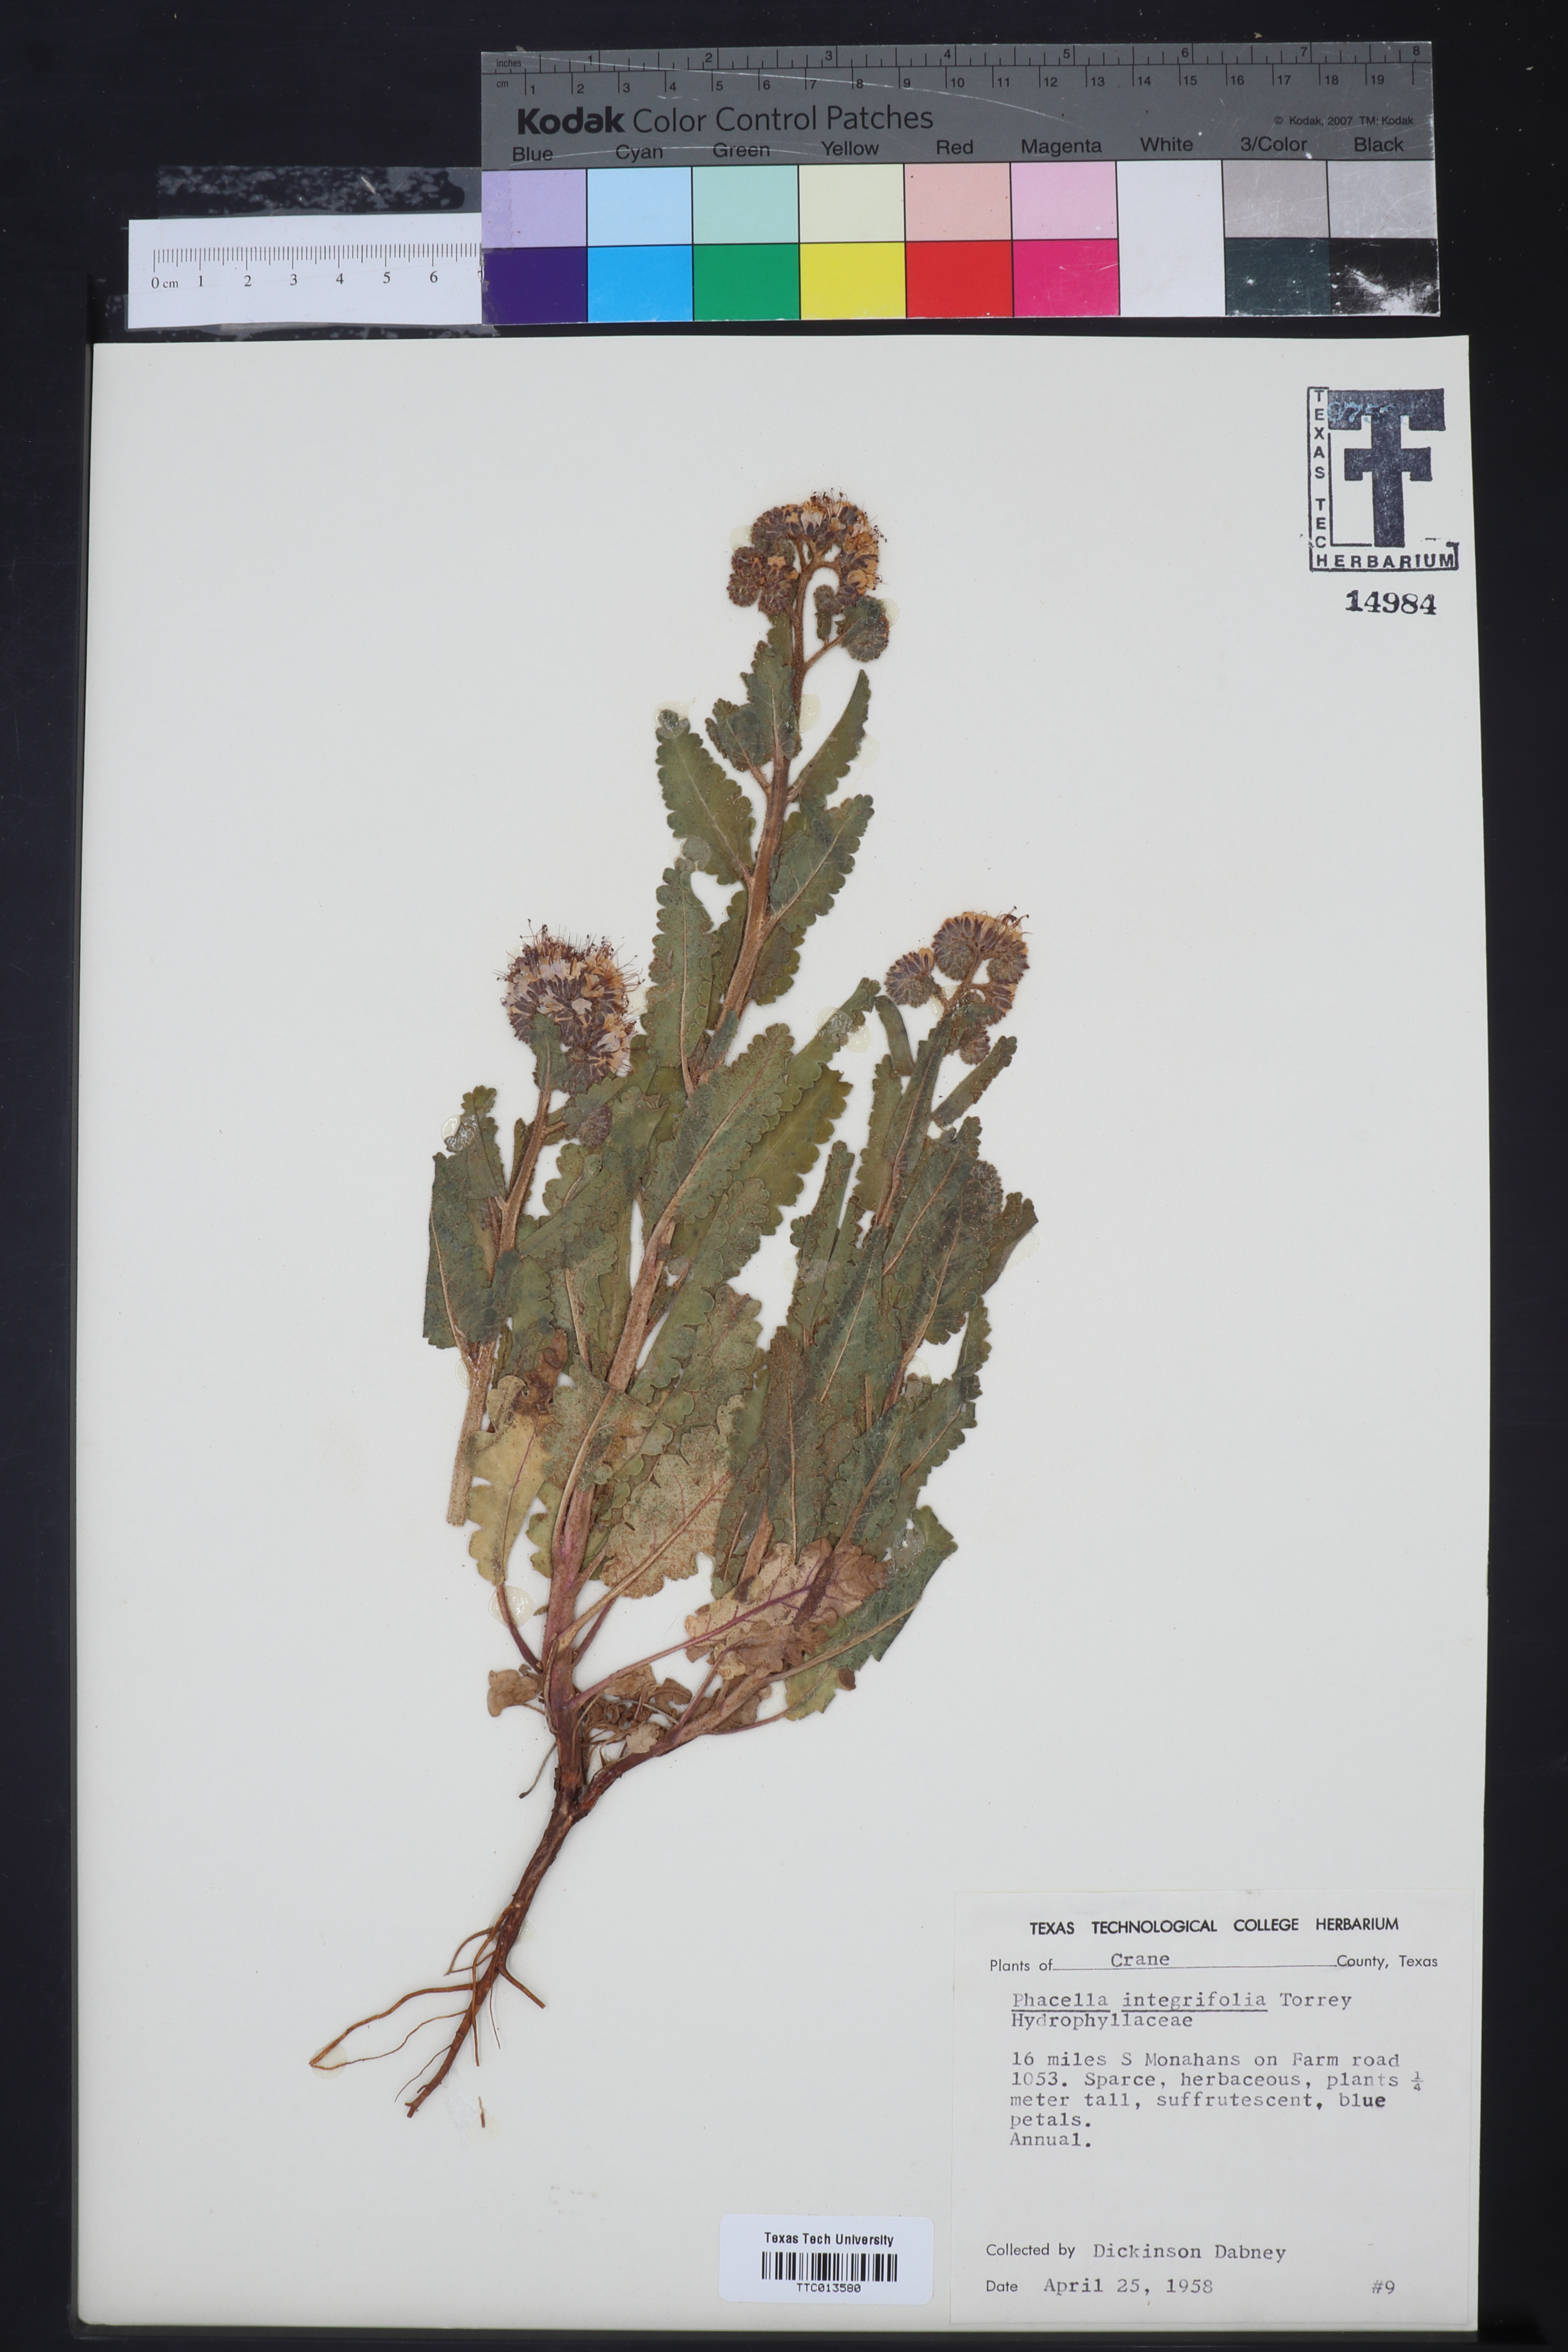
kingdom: Plantae
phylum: Tracheophyta
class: Magnoliopsida
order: Boraginales
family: Hydrophyllaceae
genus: Phacelia
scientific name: Phacelia integrifolia
